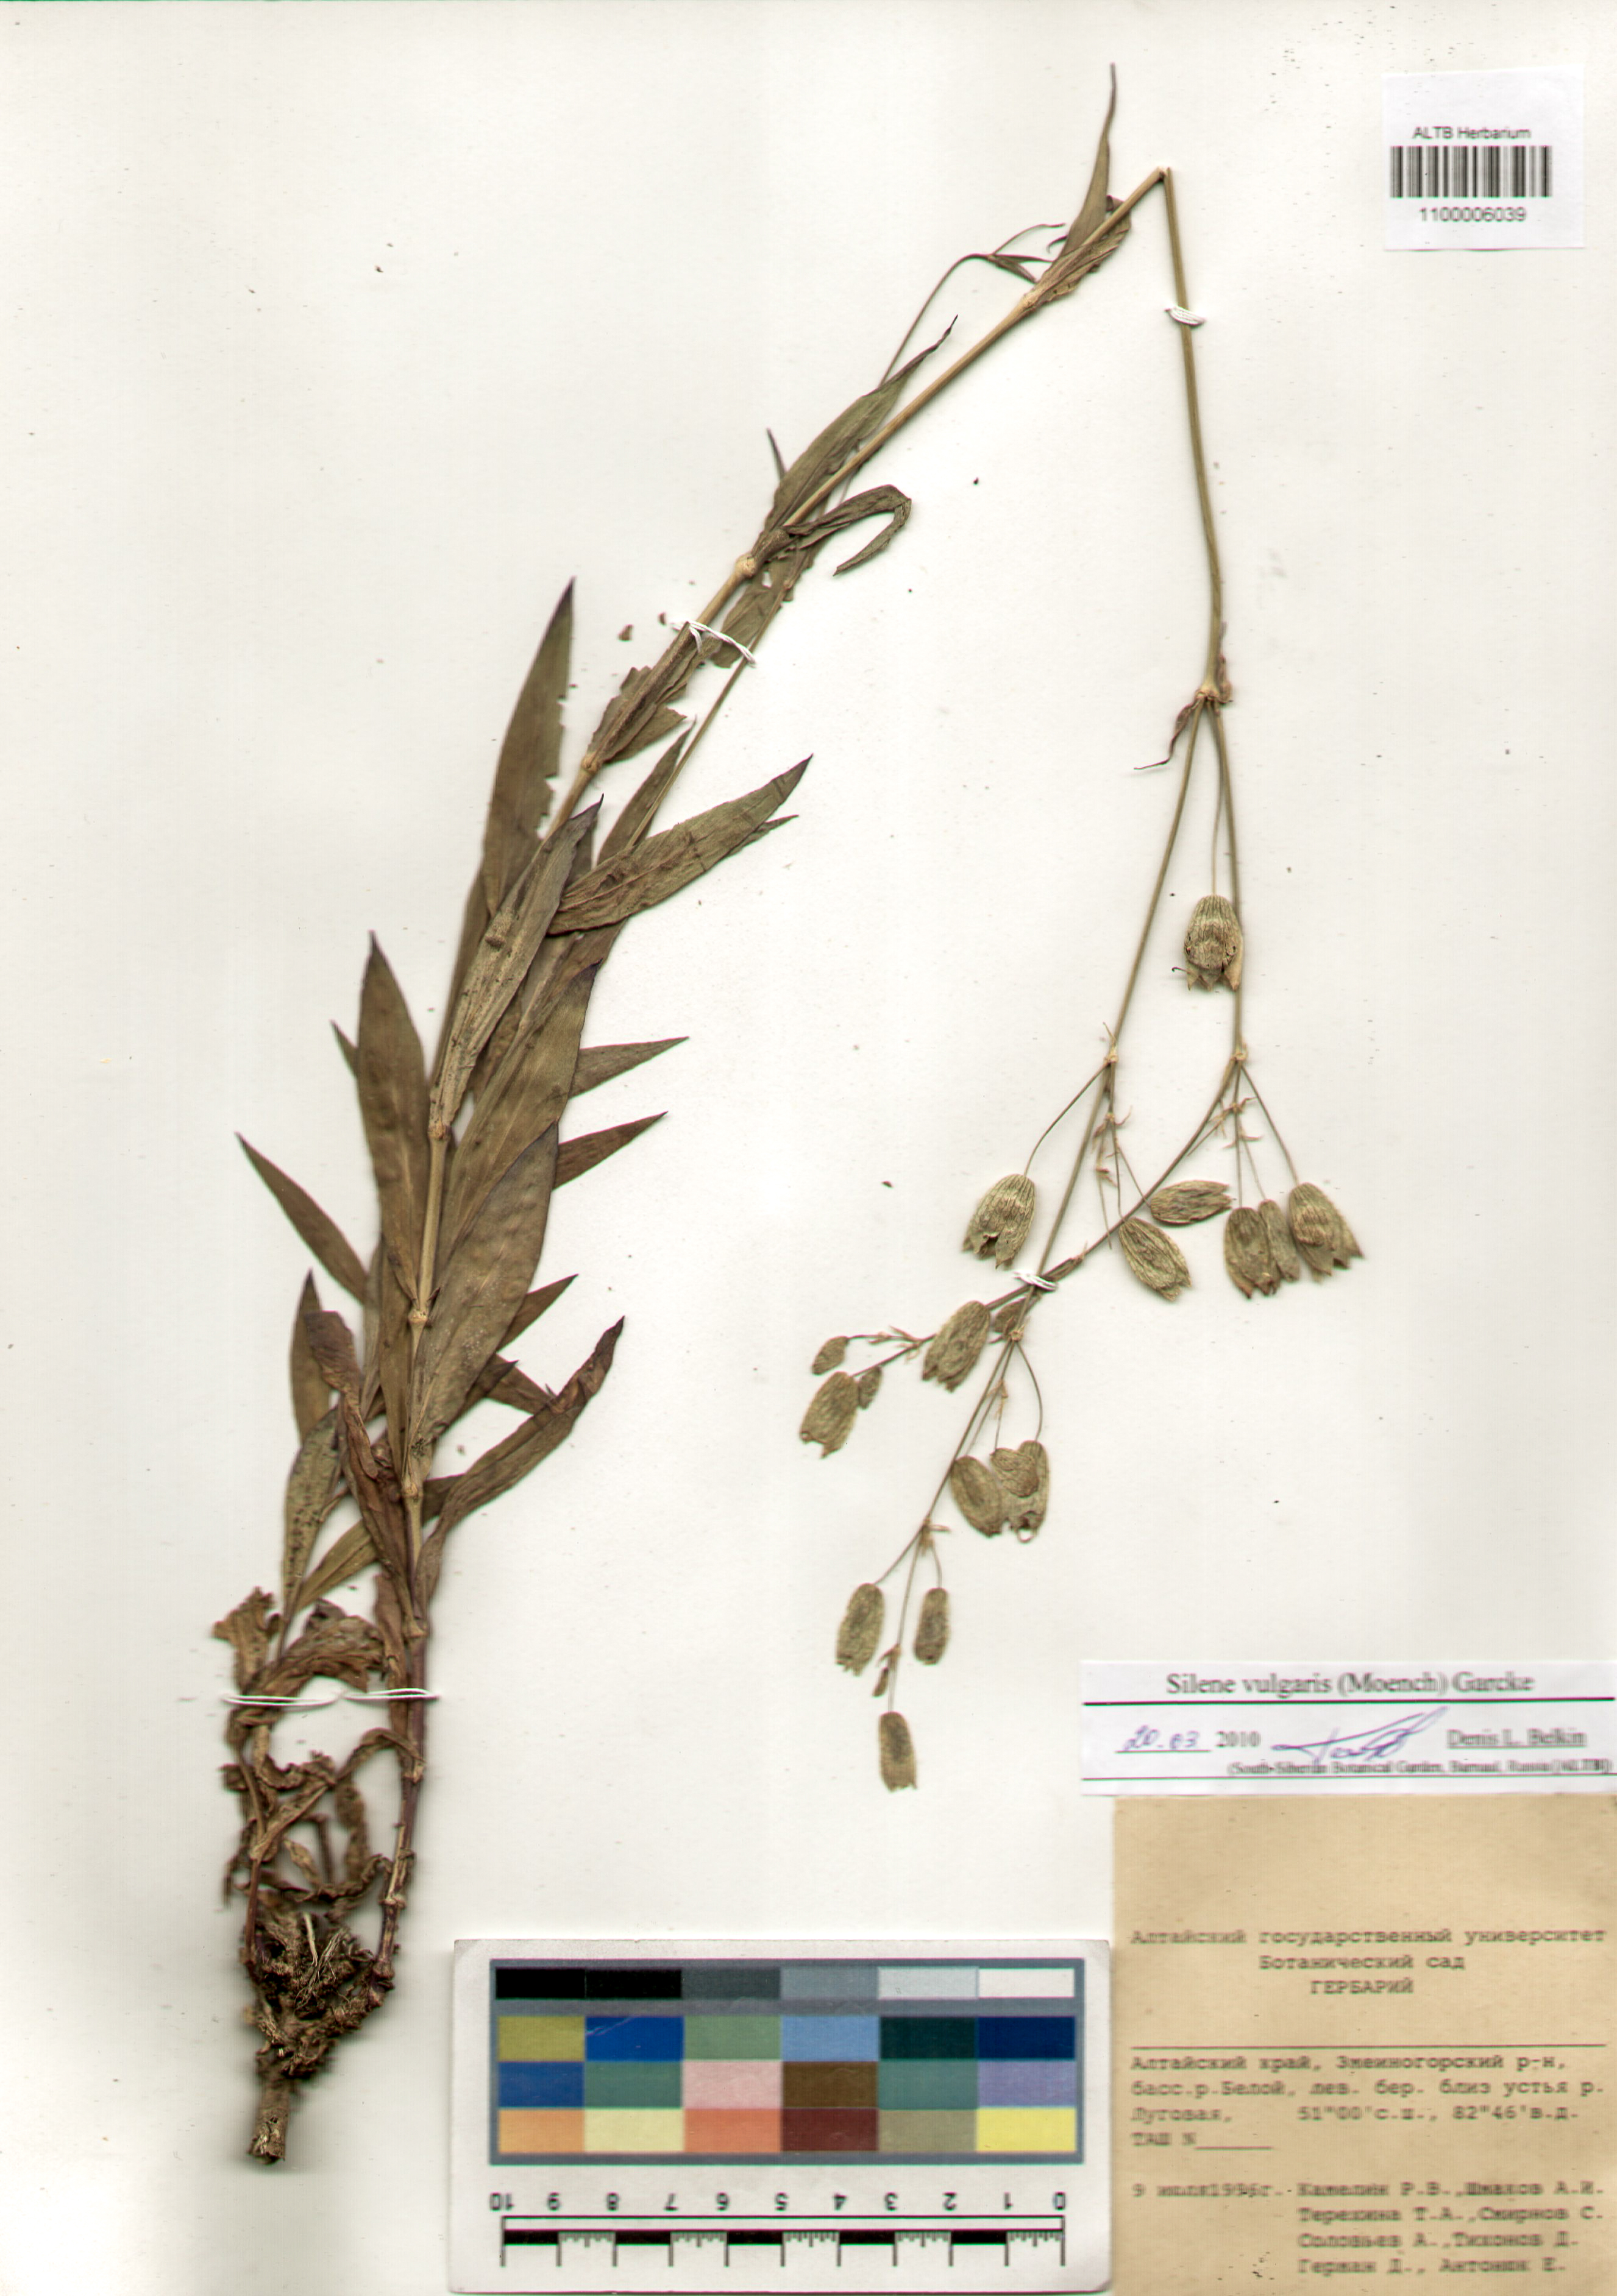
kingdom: Plantae
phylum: Tracheophyta
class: Magnoliopsida
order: Caryophyllales
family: Caryophyllaceae
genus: Silene
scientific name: Silene vulgaris
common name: Bladder campion
